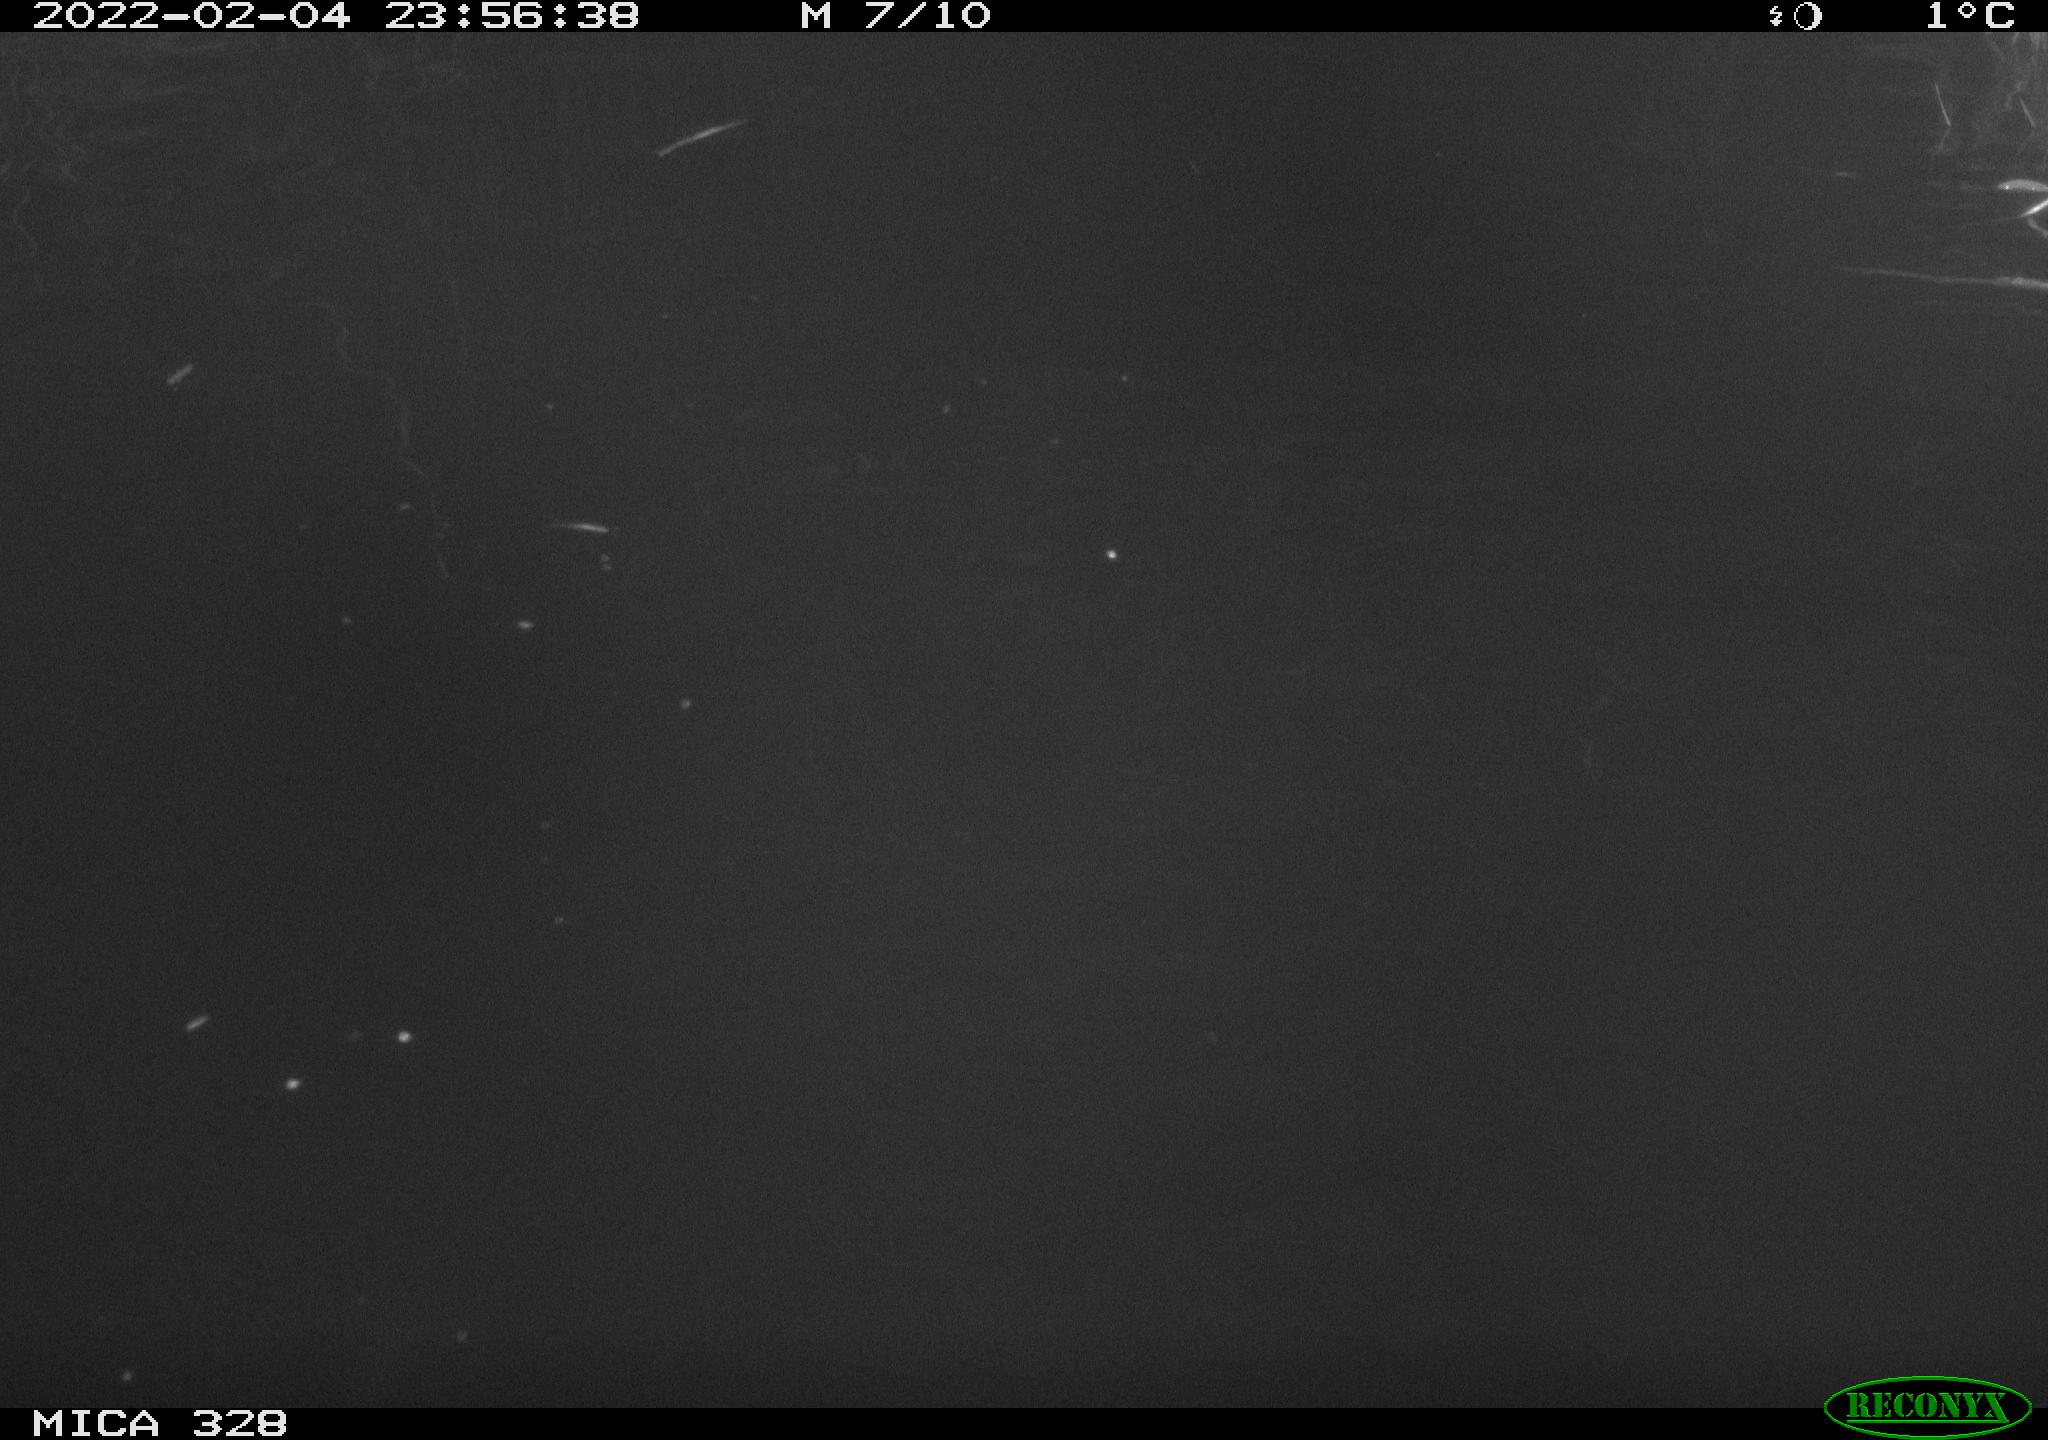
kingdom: Animalia
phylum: Chordata
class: Mammalia
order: Rodentia
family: Cricetidae
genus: Ondatra
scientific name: Ondatra zibethicus
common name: Muskrat
